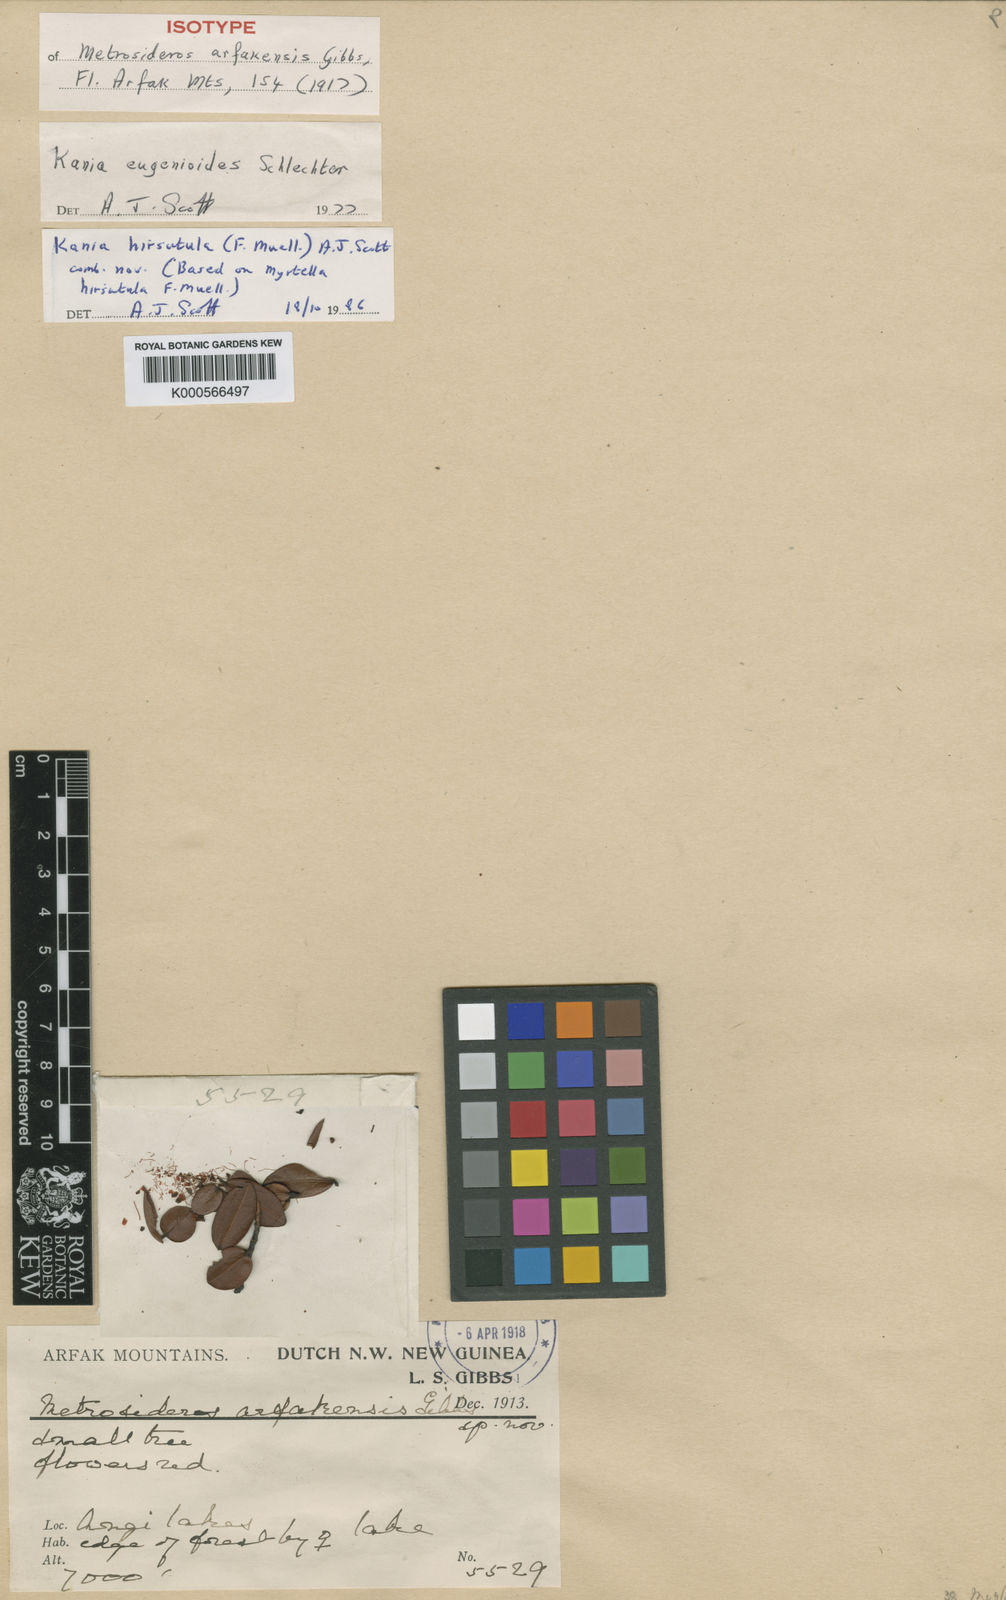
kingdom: Plantae
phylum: Tracheophyta
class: Magnoliopsida
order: Myrtales
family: Myrtaceae
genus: Metrosideros
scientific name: Metrosideros arfakensis
